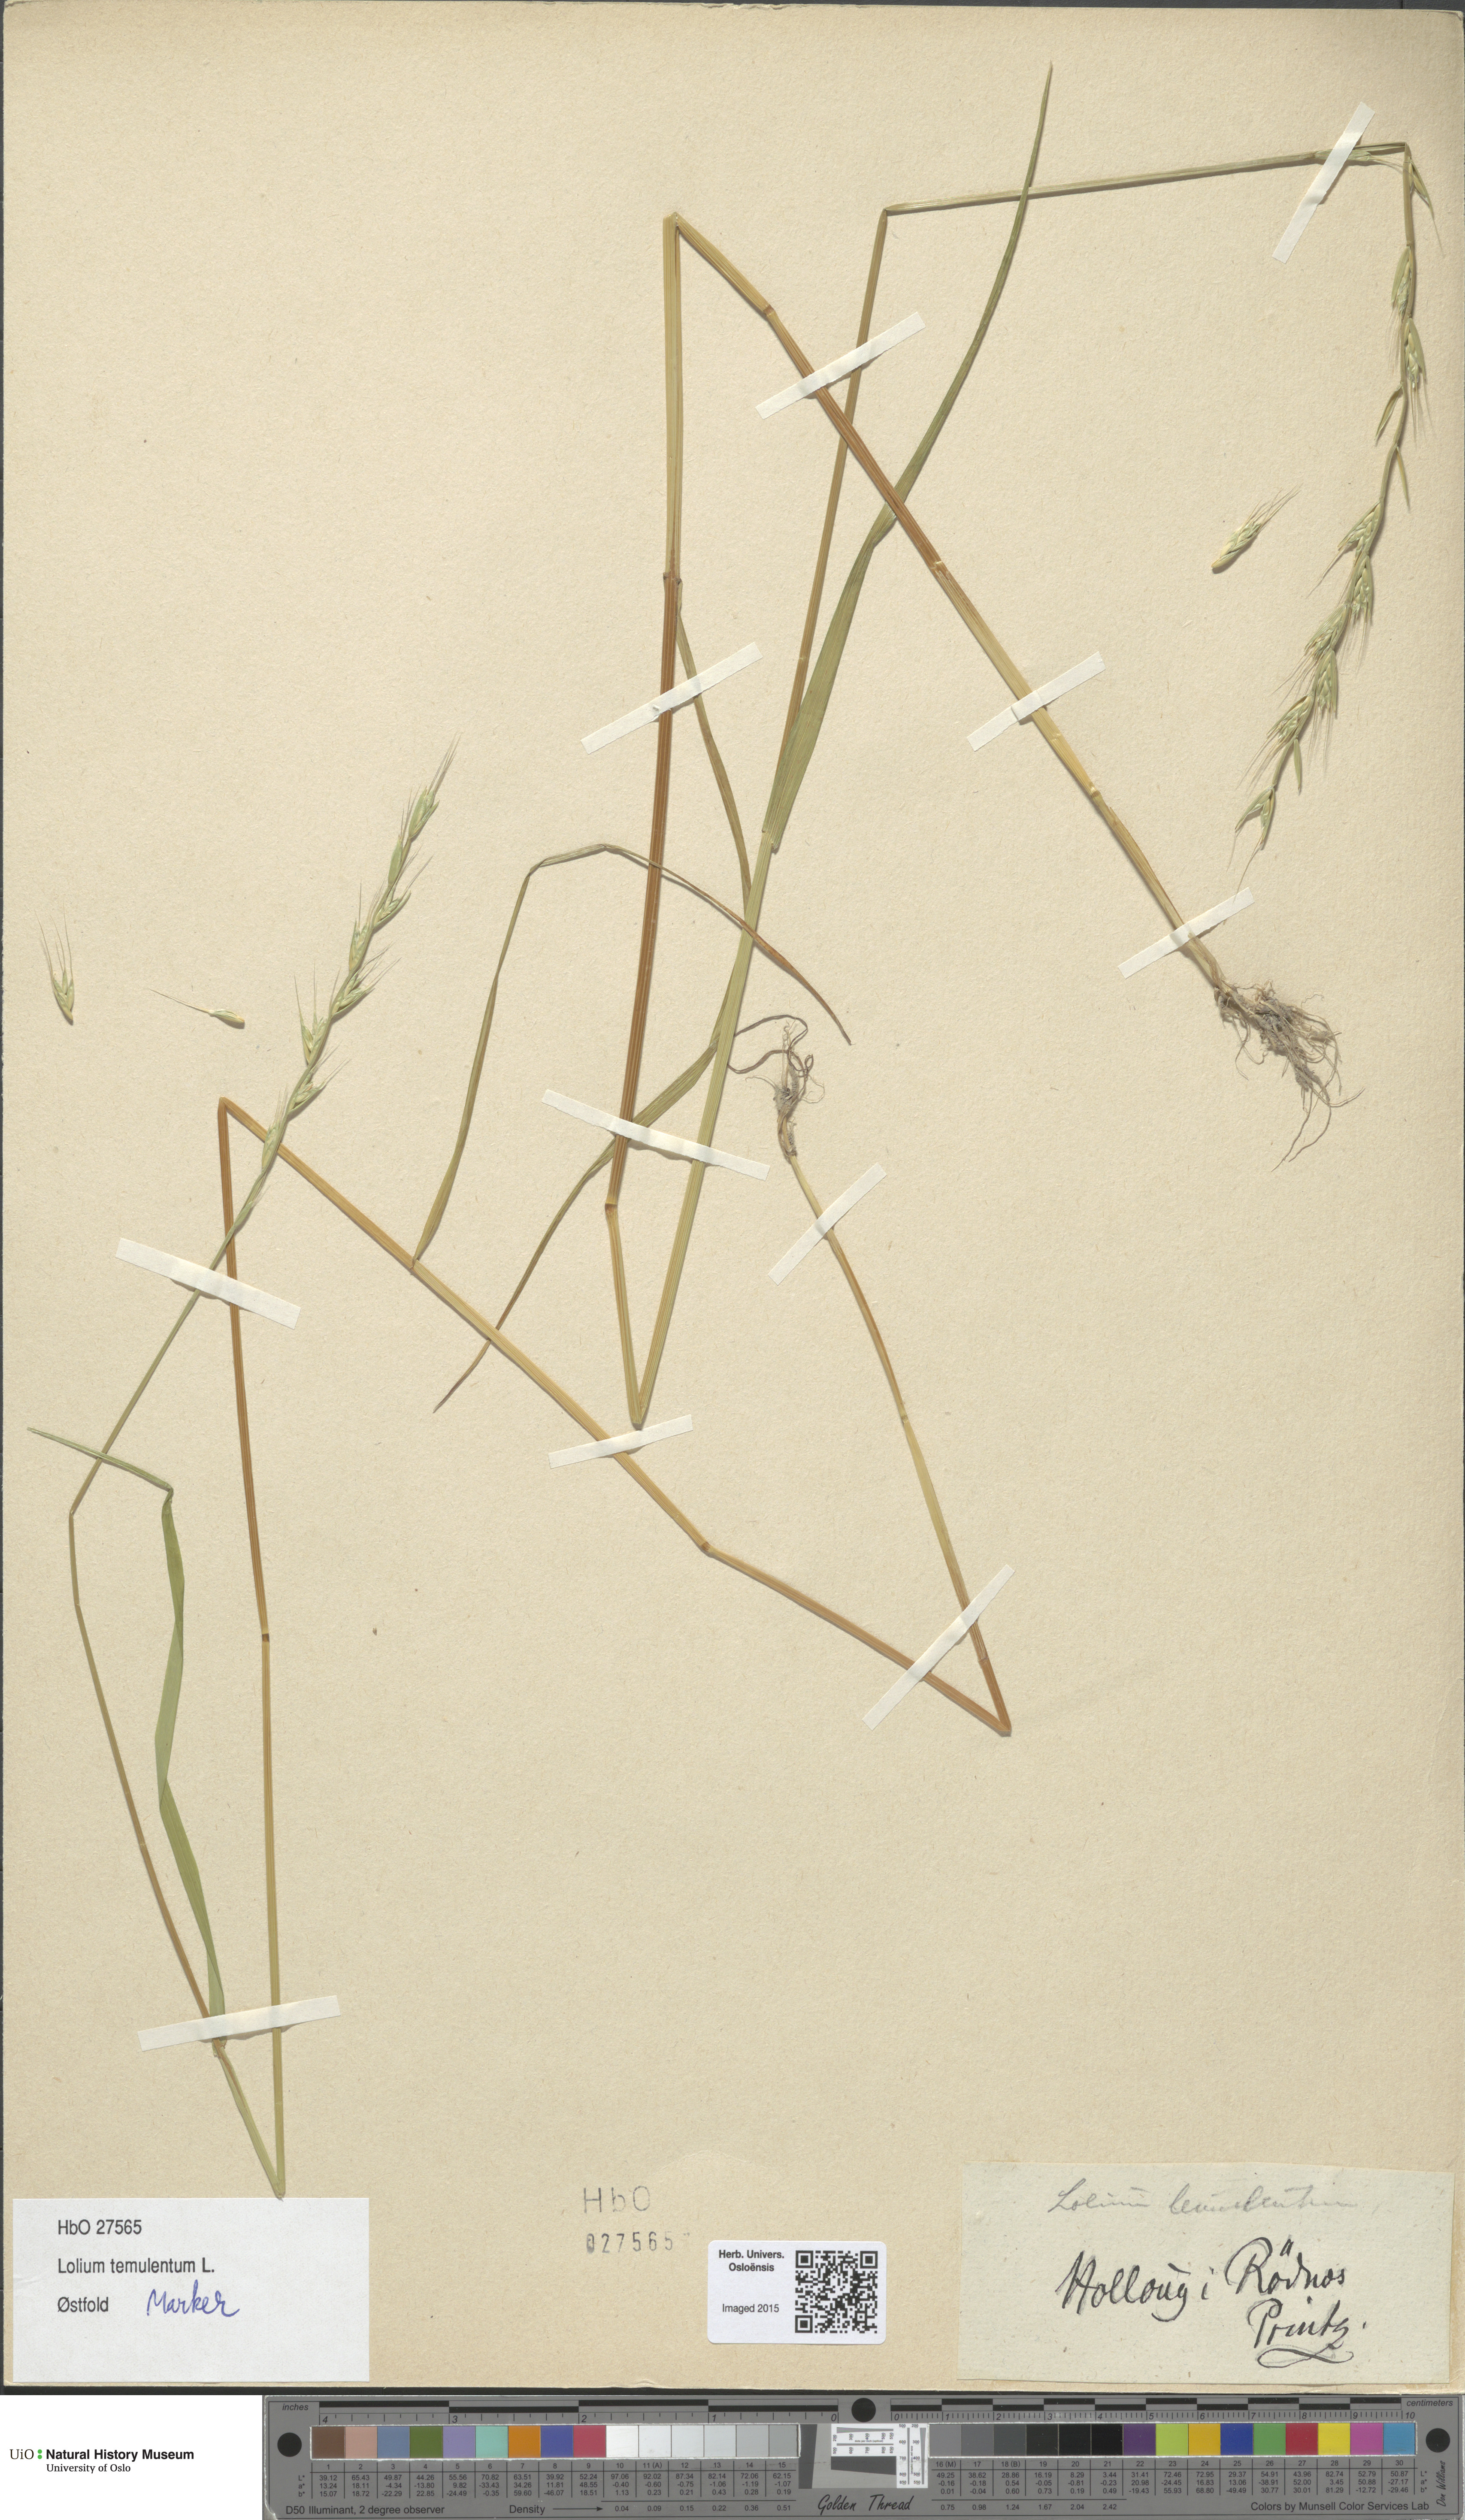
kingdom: Plantae
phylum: Tracheophyta
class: Liliopsida
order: Poales
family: Poaceae
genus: Lolium
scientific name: Lolium temulentum
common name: Darnel
